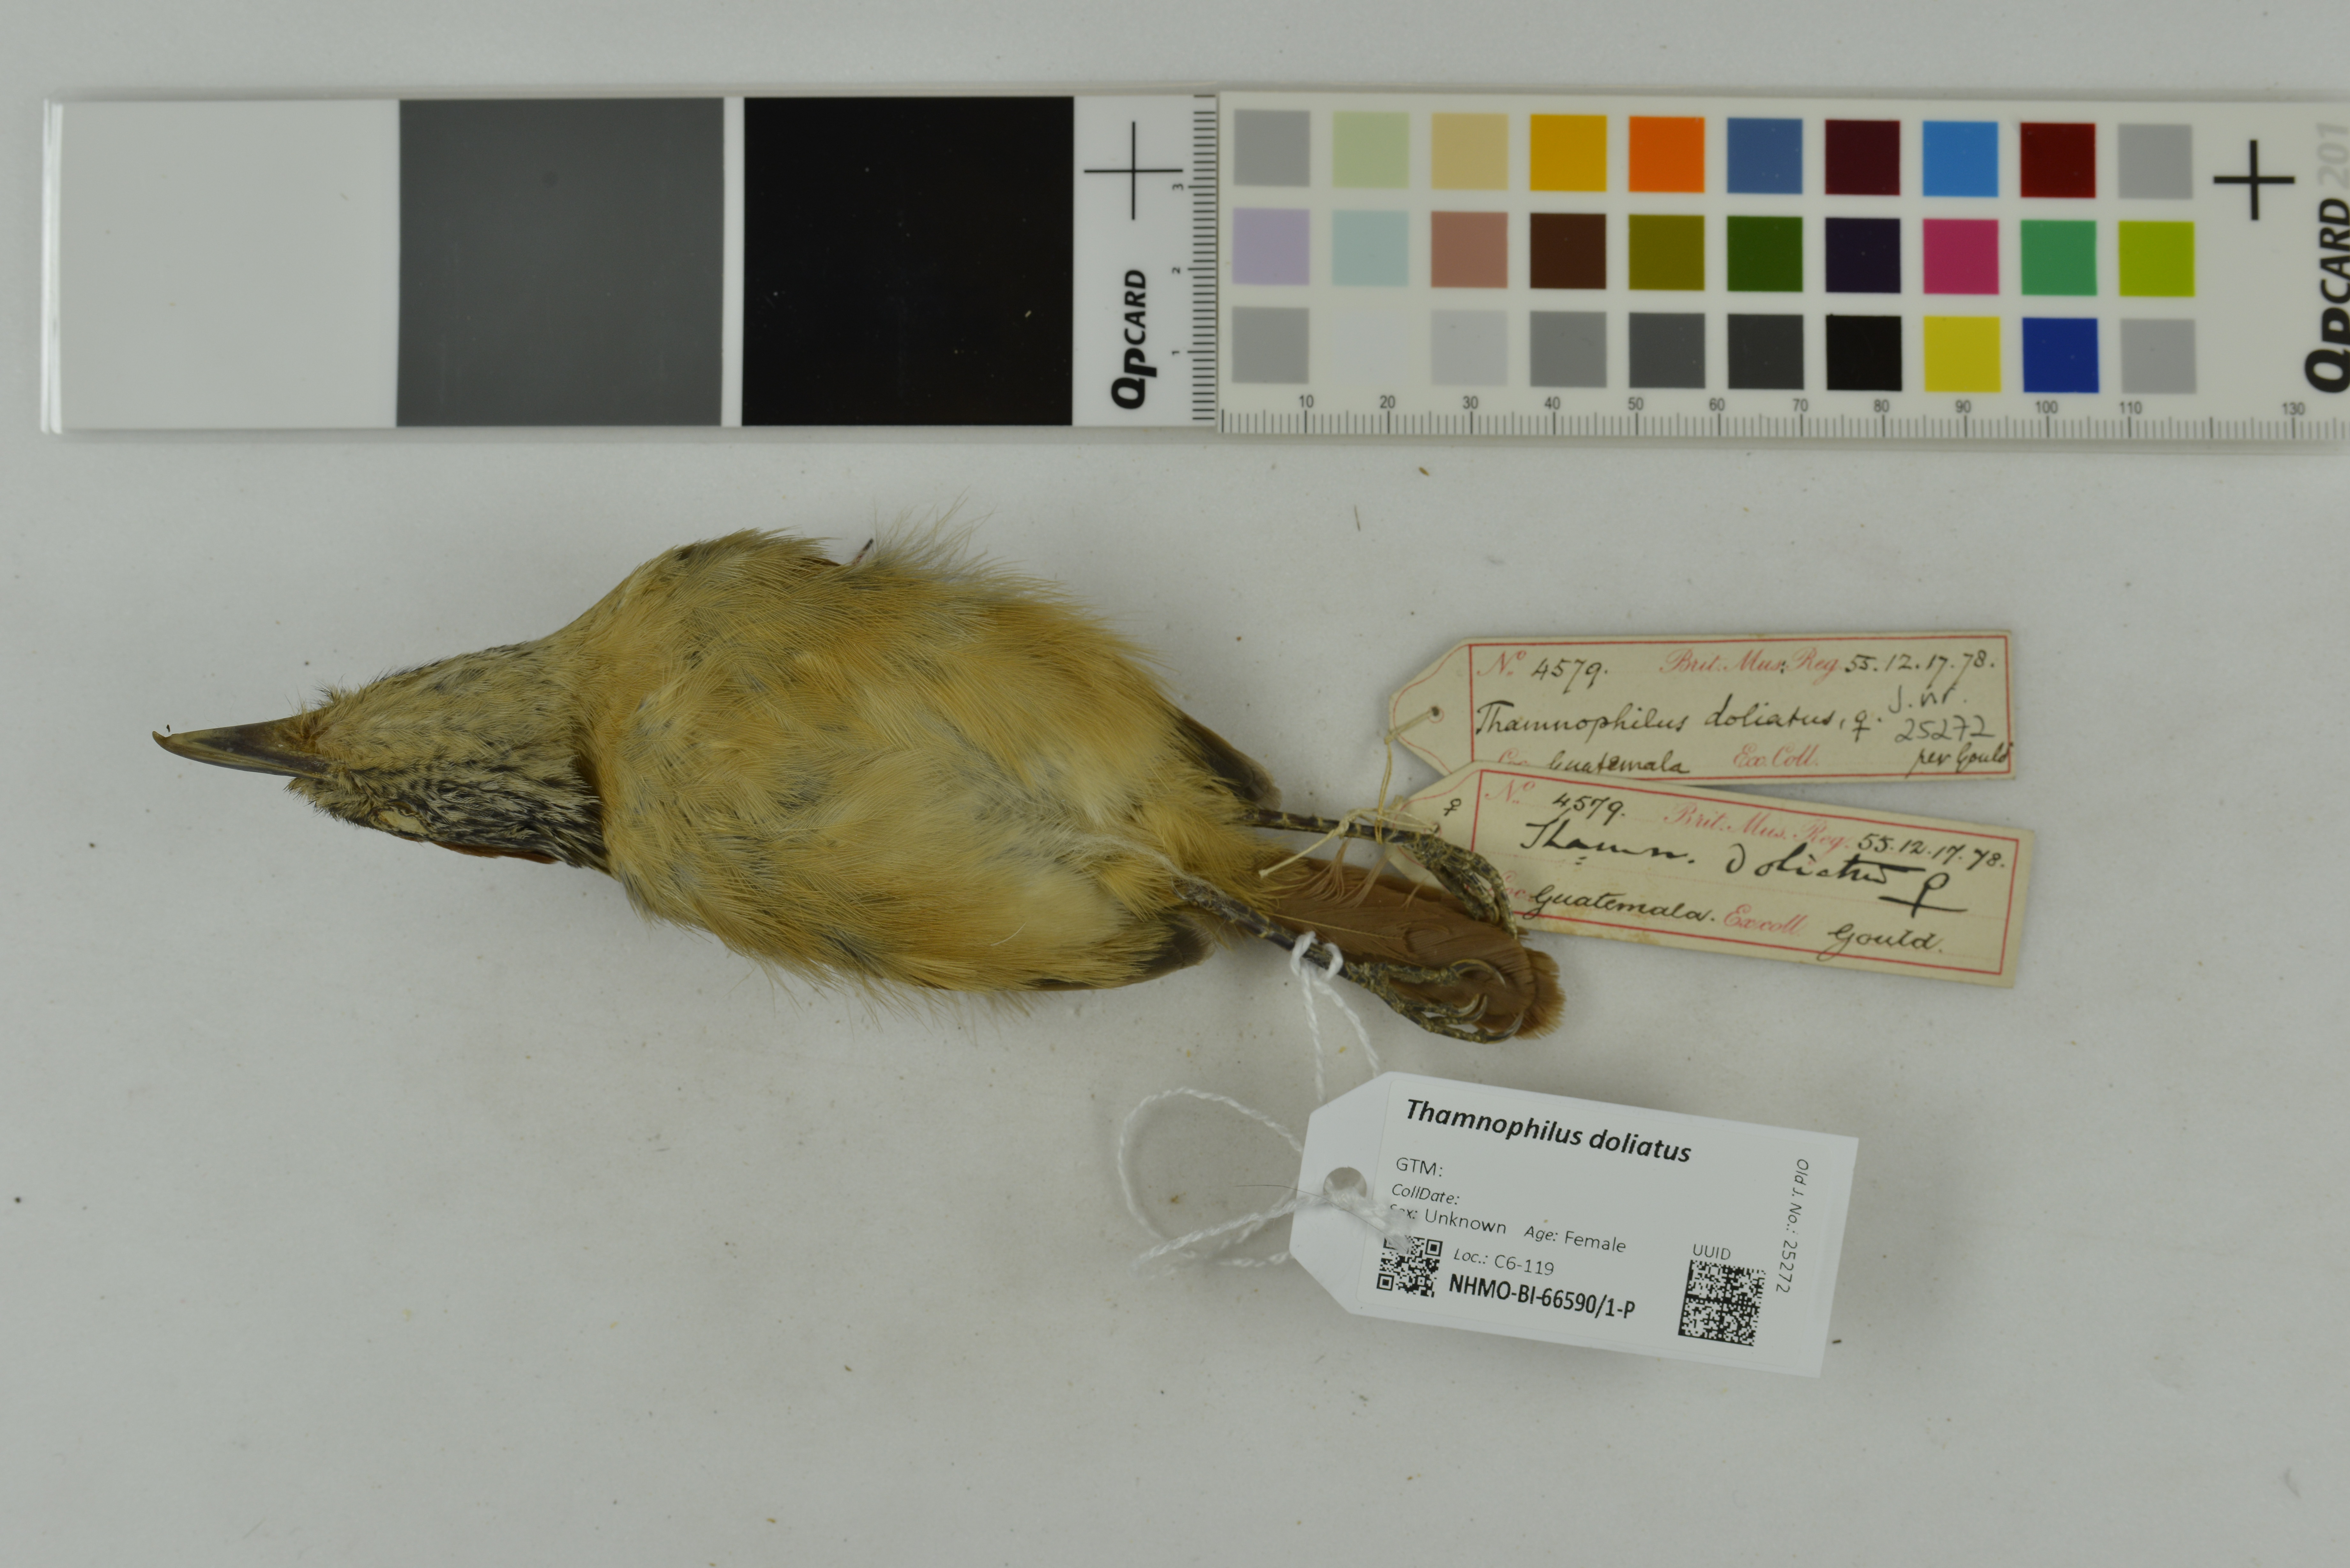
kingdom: Animalia
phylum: Chordata
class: Aves
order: Passeriformes
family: Thamnophilidae
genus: Thamnophilus
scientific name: Thamnophilus doliatus
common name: Barred antshrike
